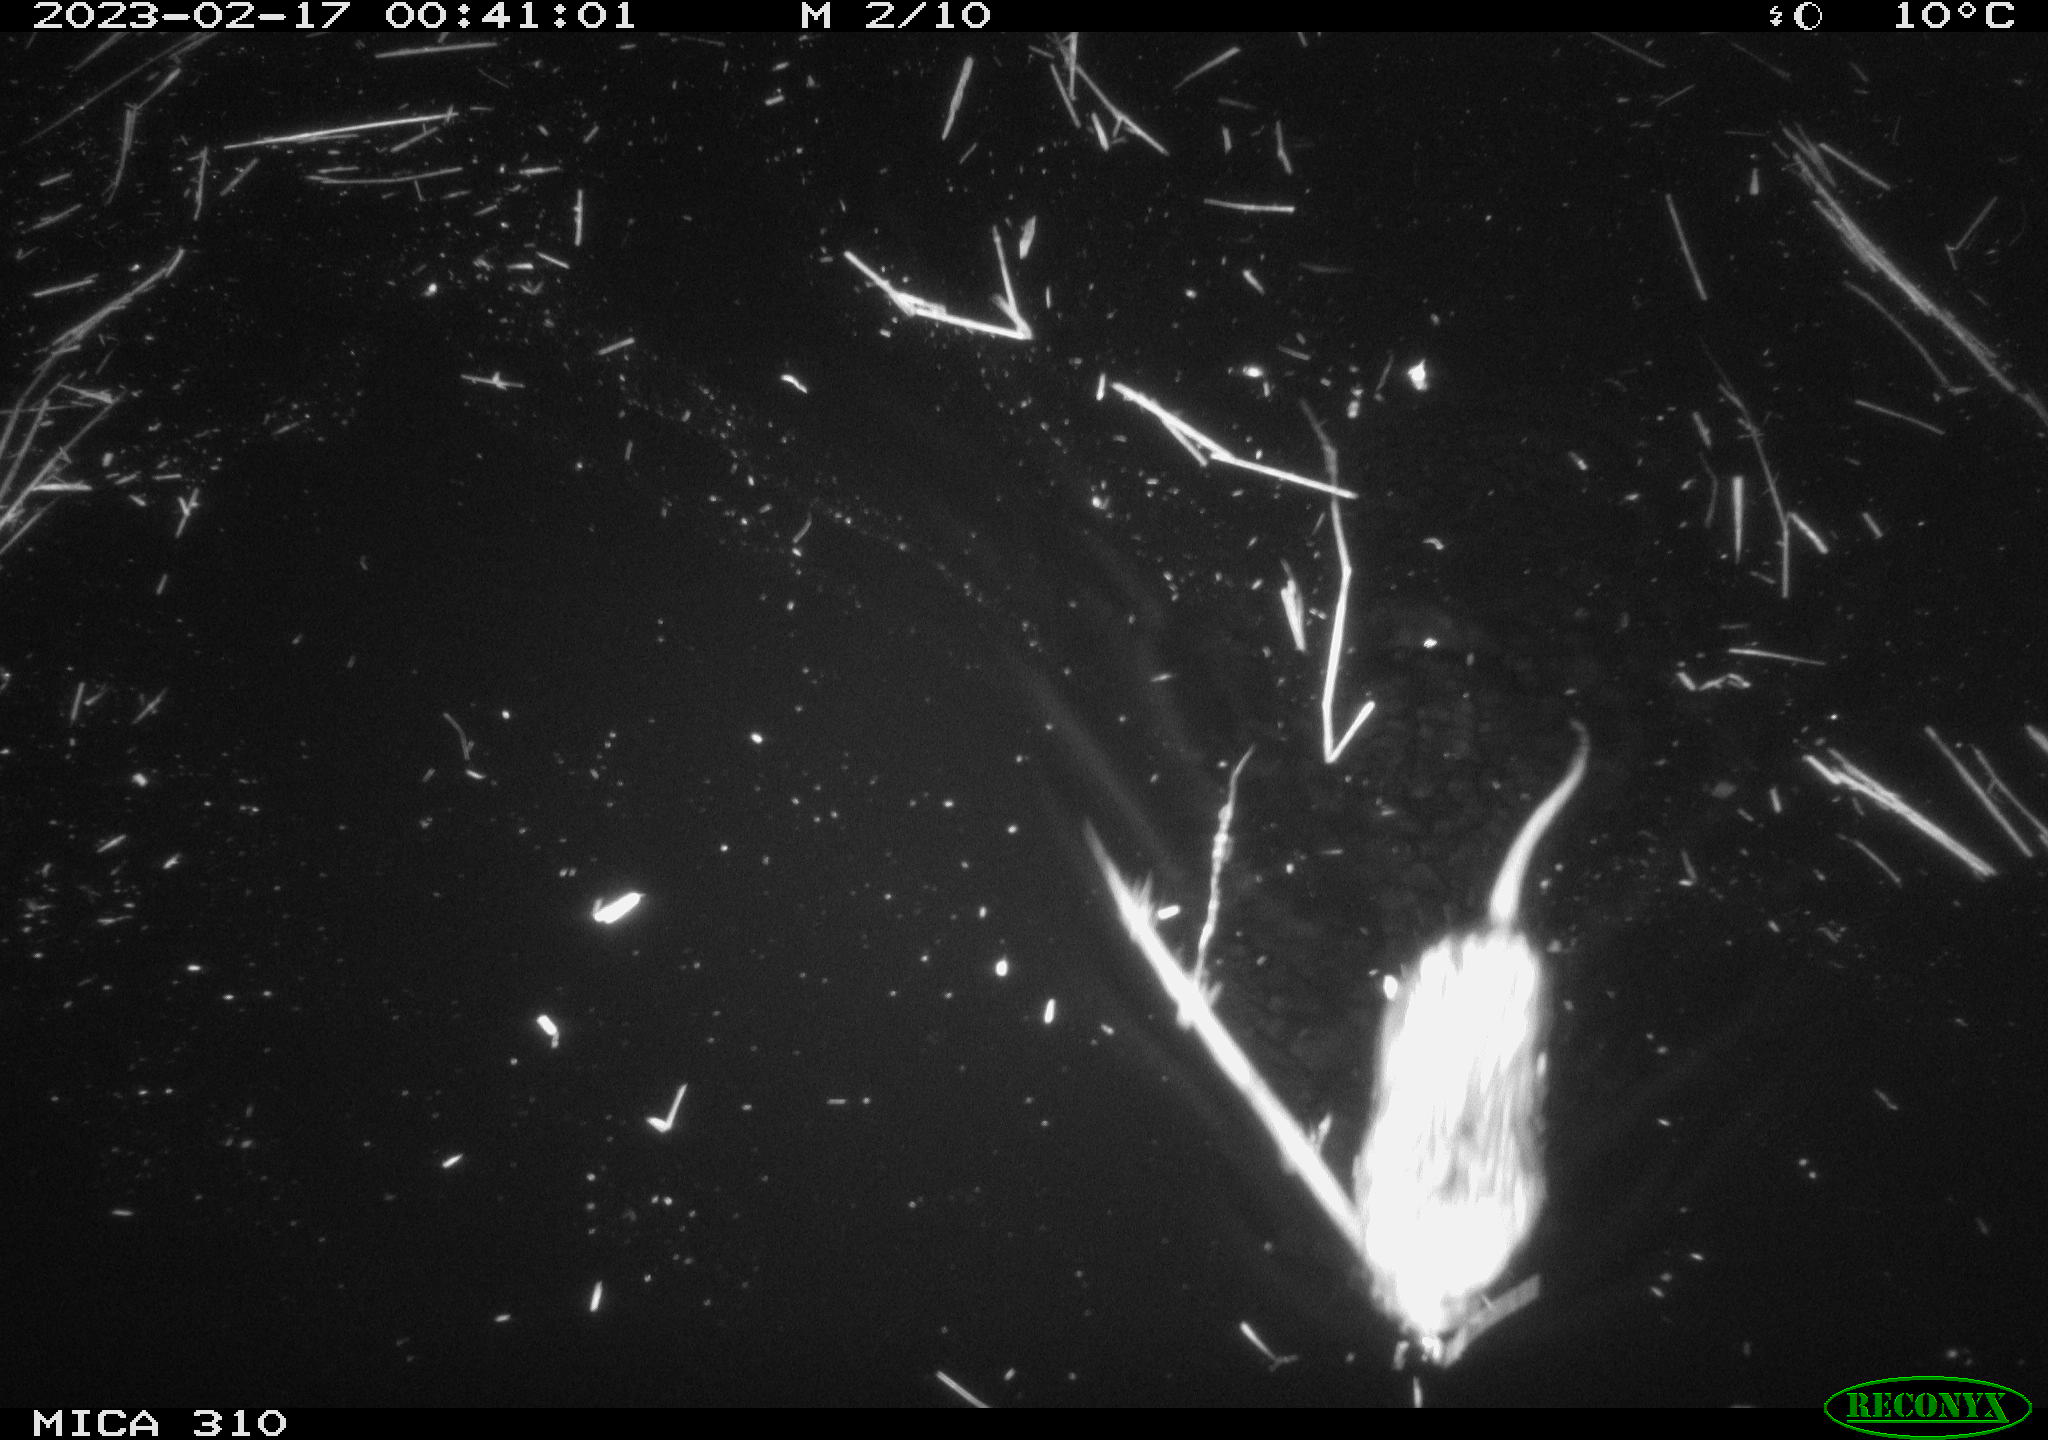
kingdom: Animalia
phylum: Chordata
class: Mammalia
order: Rodentia
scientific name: Rodentia
